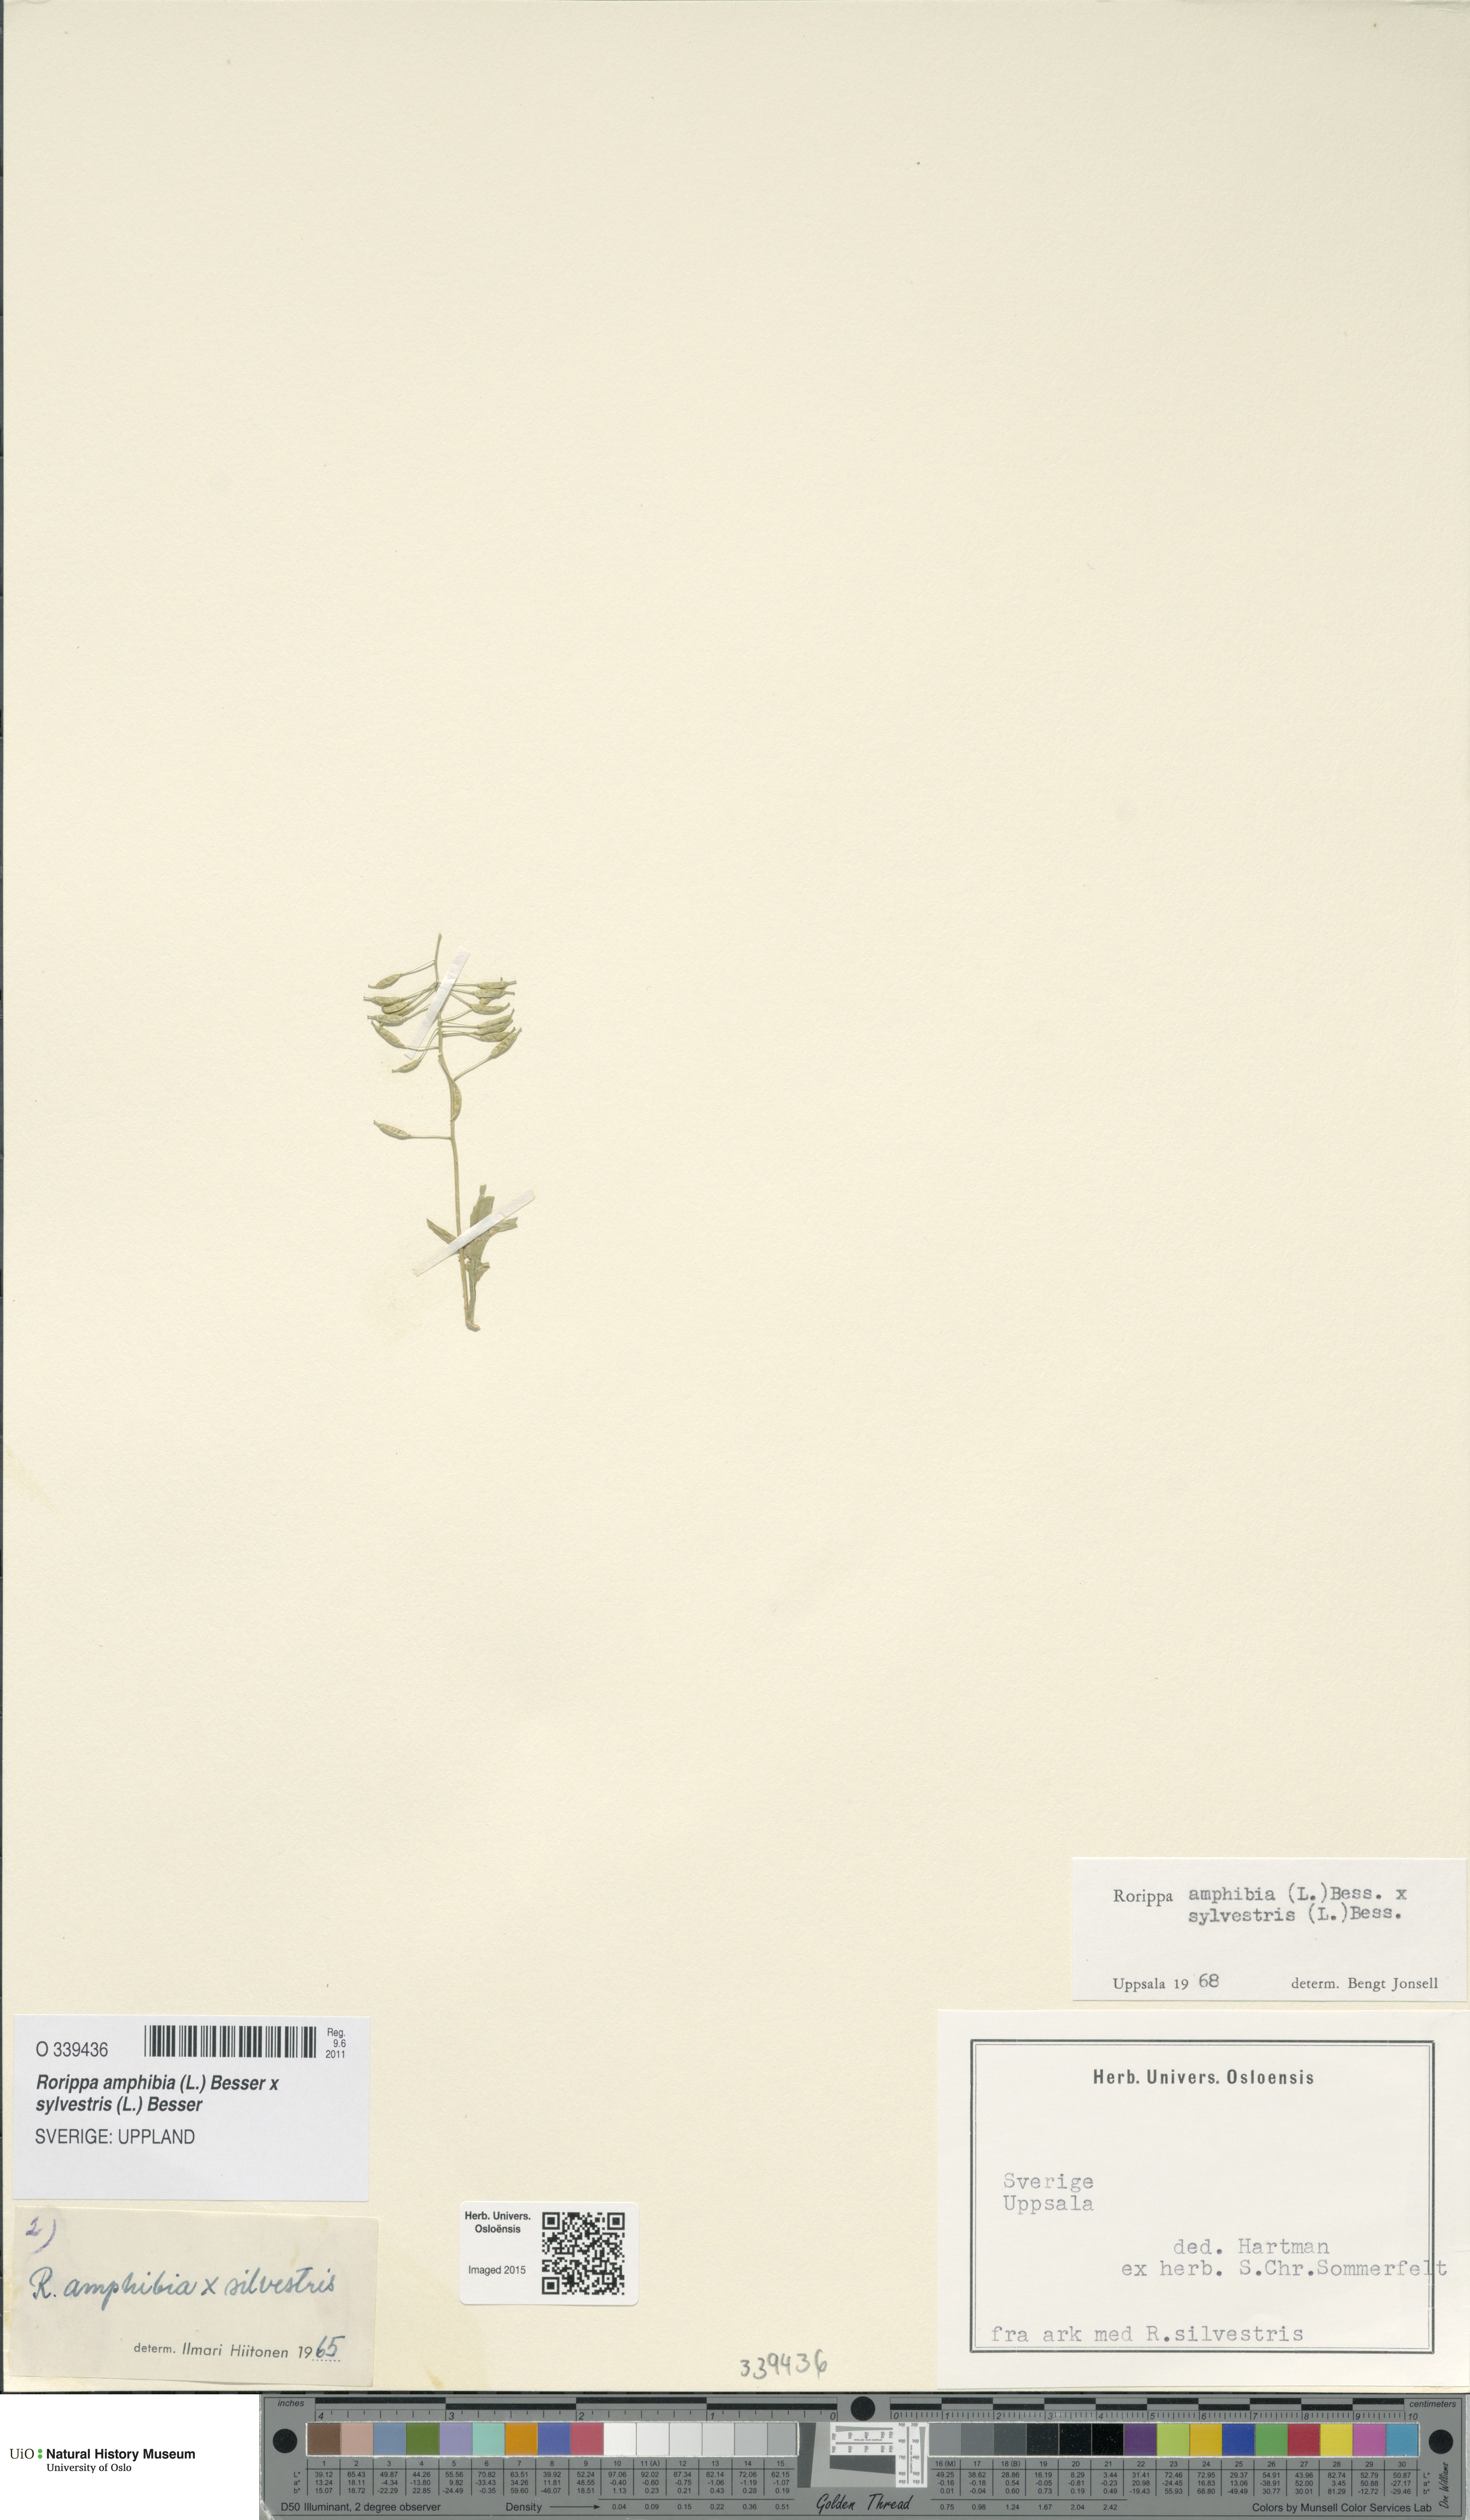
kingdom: Plantae
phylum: Tracheophyta
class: Magnoliopsida
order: Brassicales
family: Brassicaceae
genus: Rorippa
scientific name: Rorippa
